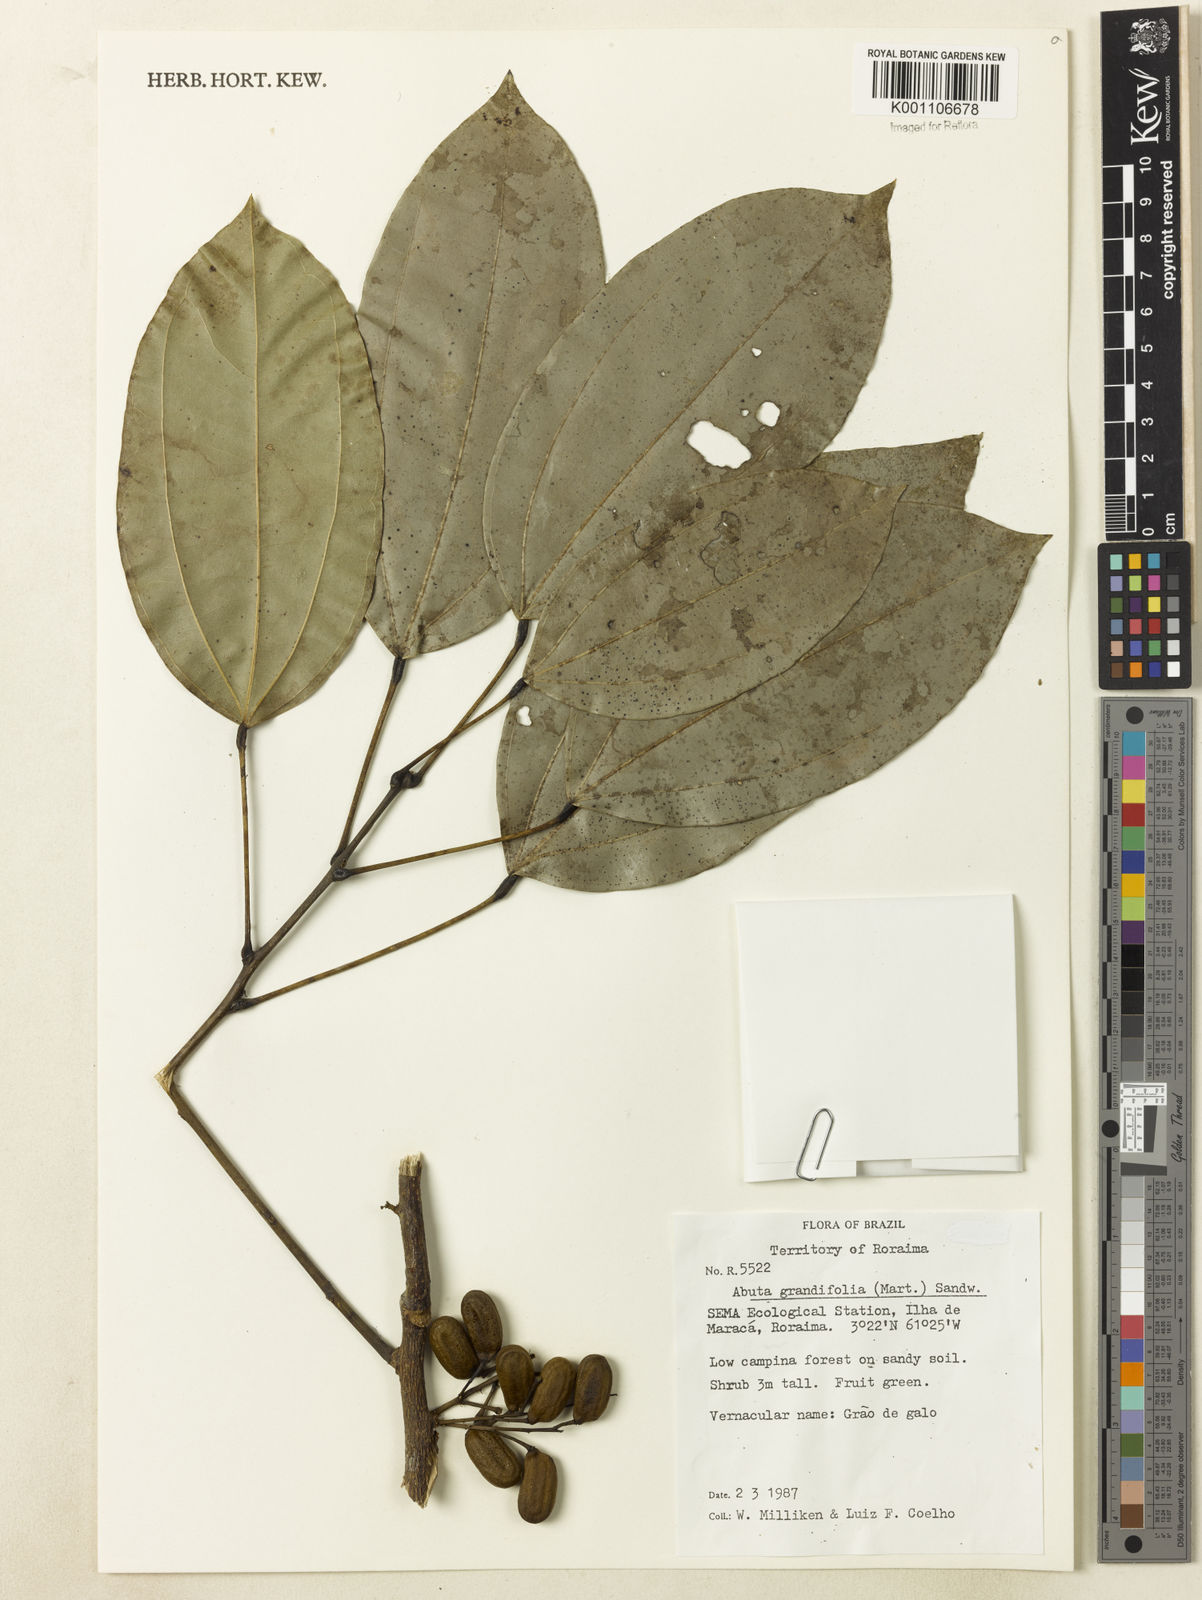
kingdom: Plantae
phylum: Tracheophyta
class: Magnoliopsida
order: Ranunculales
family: Menispermaceae
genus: Abuta
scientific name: Abuta grandifolia
